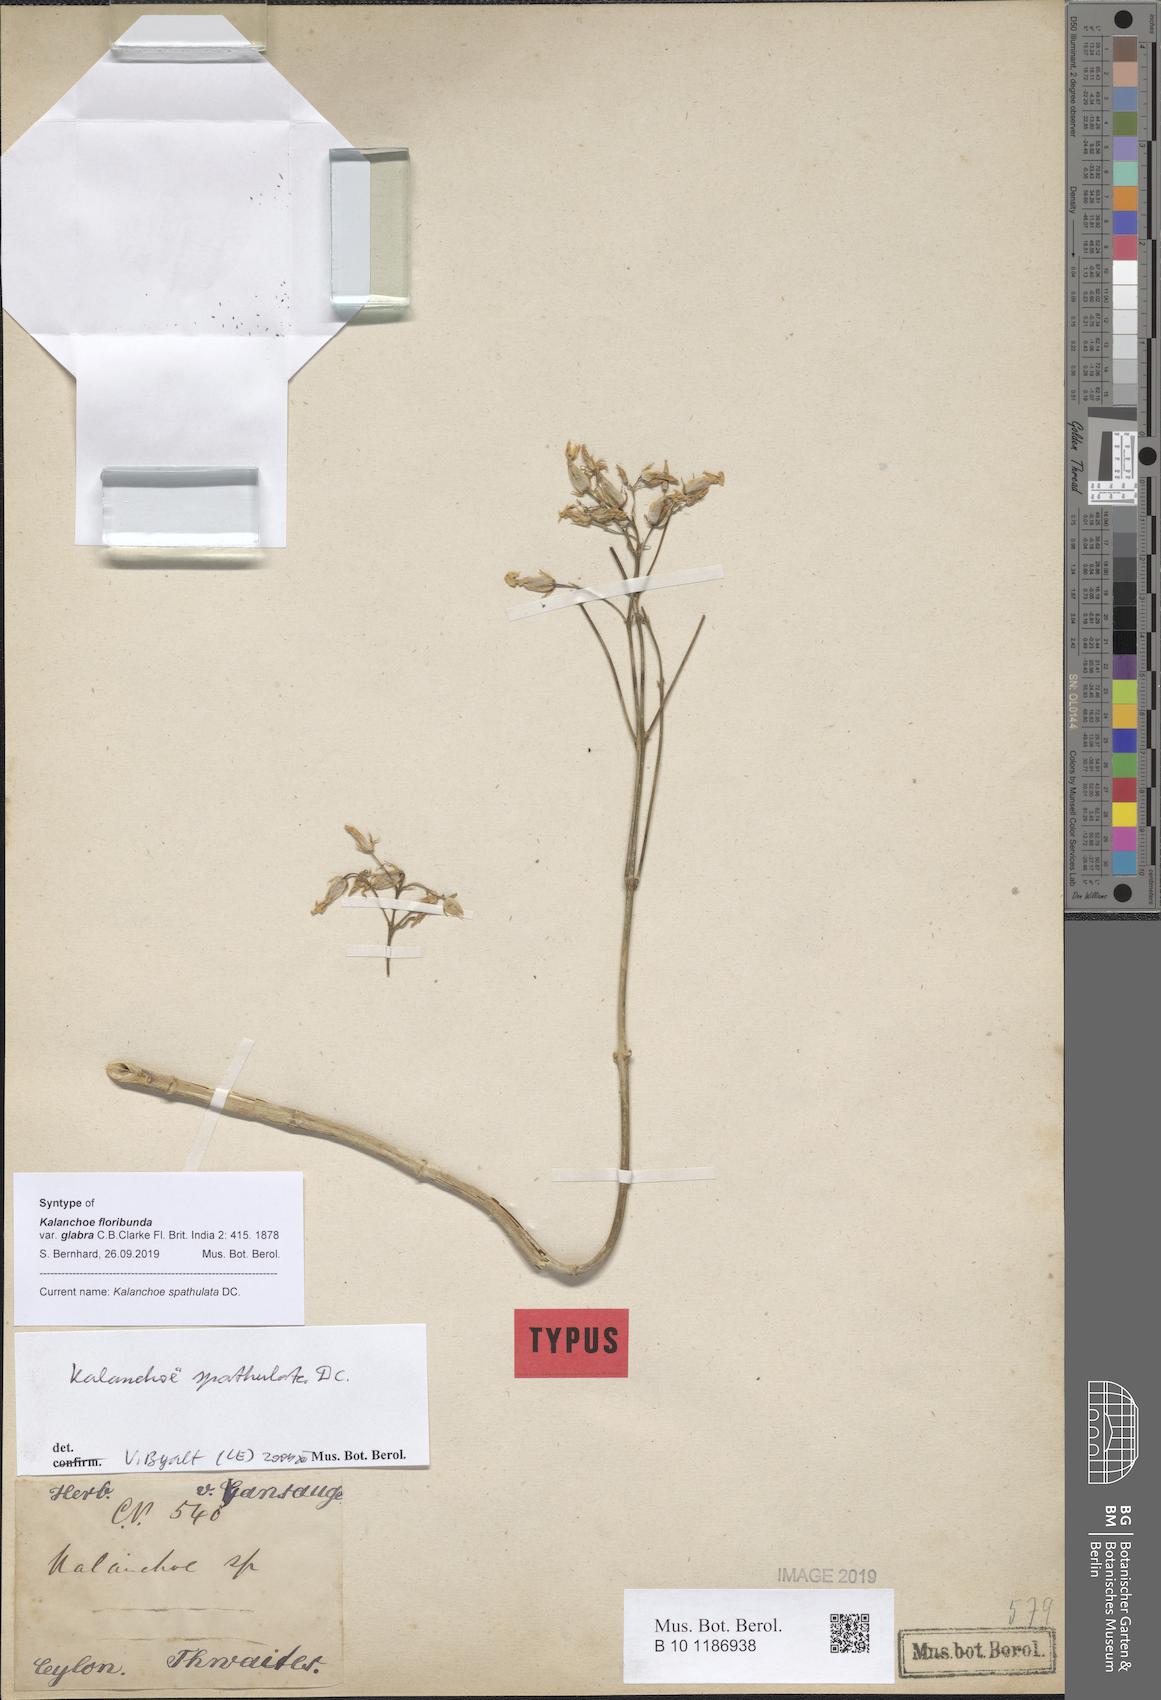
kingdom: Plantae
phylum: Tracheophyta
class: Magnoliopsida
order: Saxifragales
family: Crassulaceae
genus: Kalanchoe
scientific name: Kalanchoe integra
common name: Neverdie
